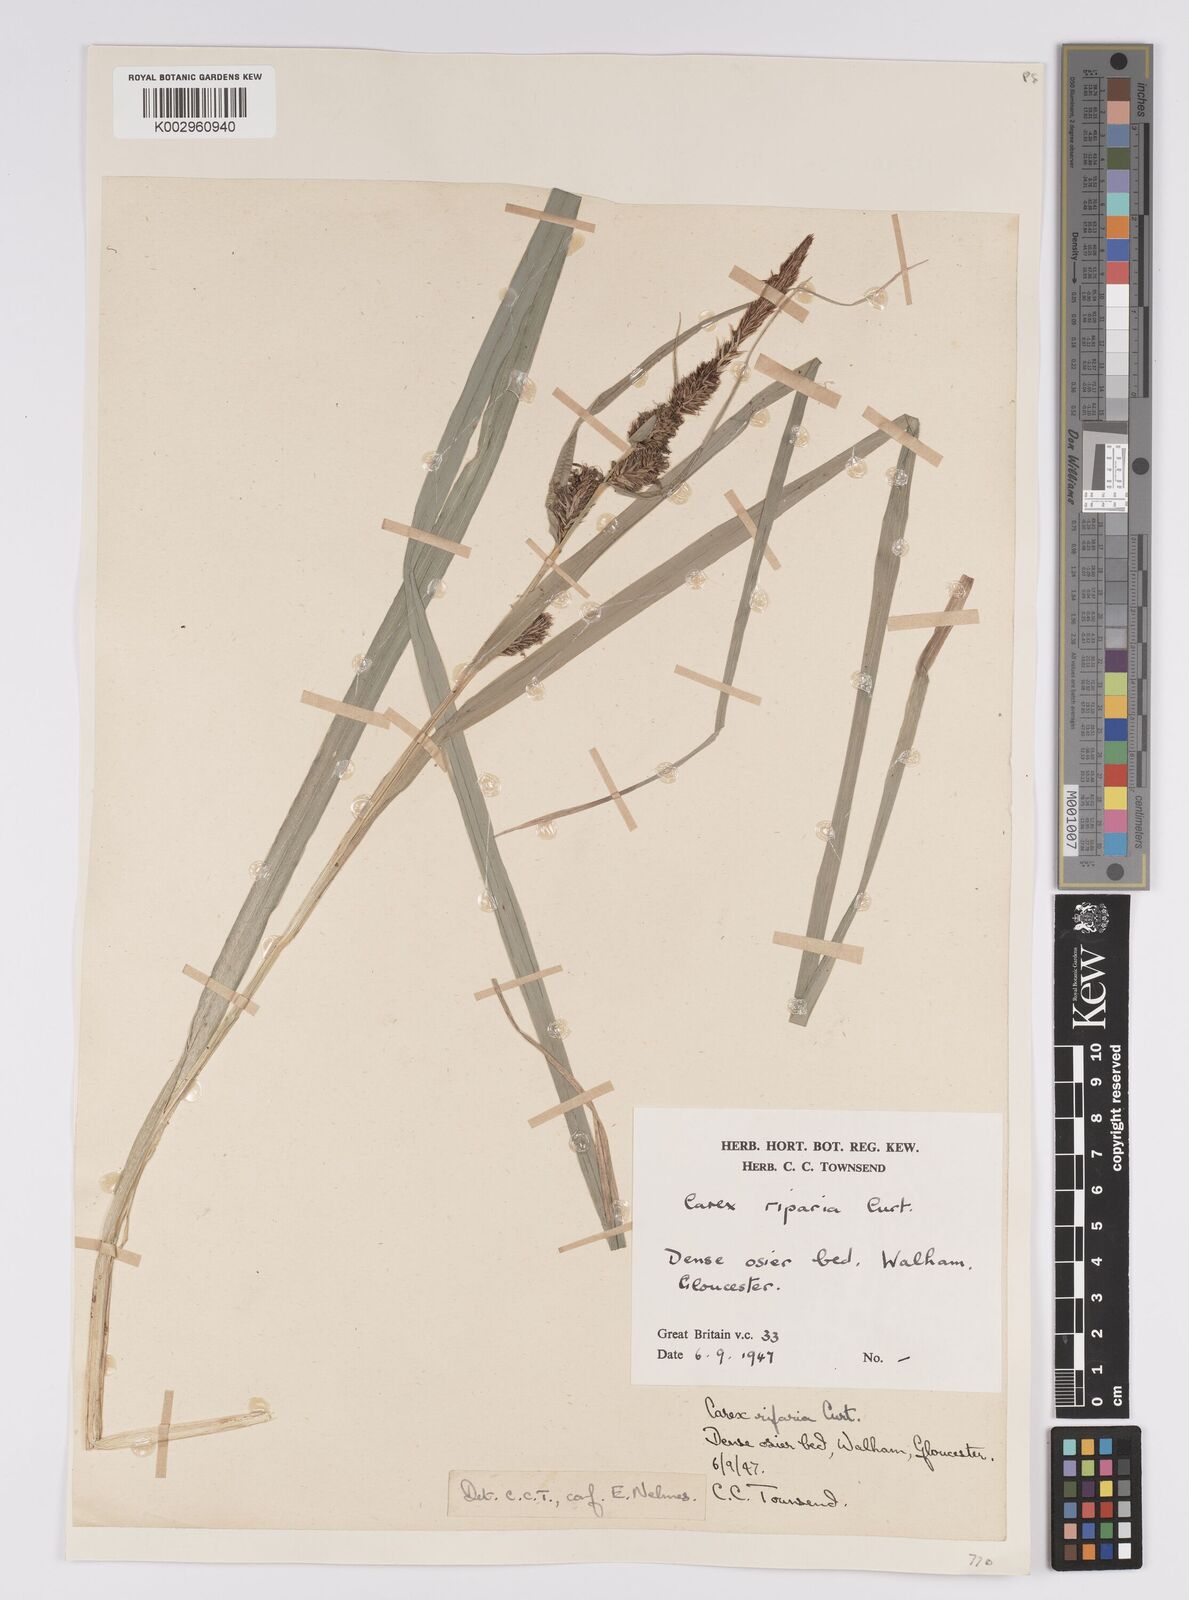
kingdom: Plantae
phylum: Tracheophyta
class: Liliopsida
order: Poales
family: Cyperaceae
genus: Carex
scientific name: Carex riparia
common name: Greater pond-sedge
